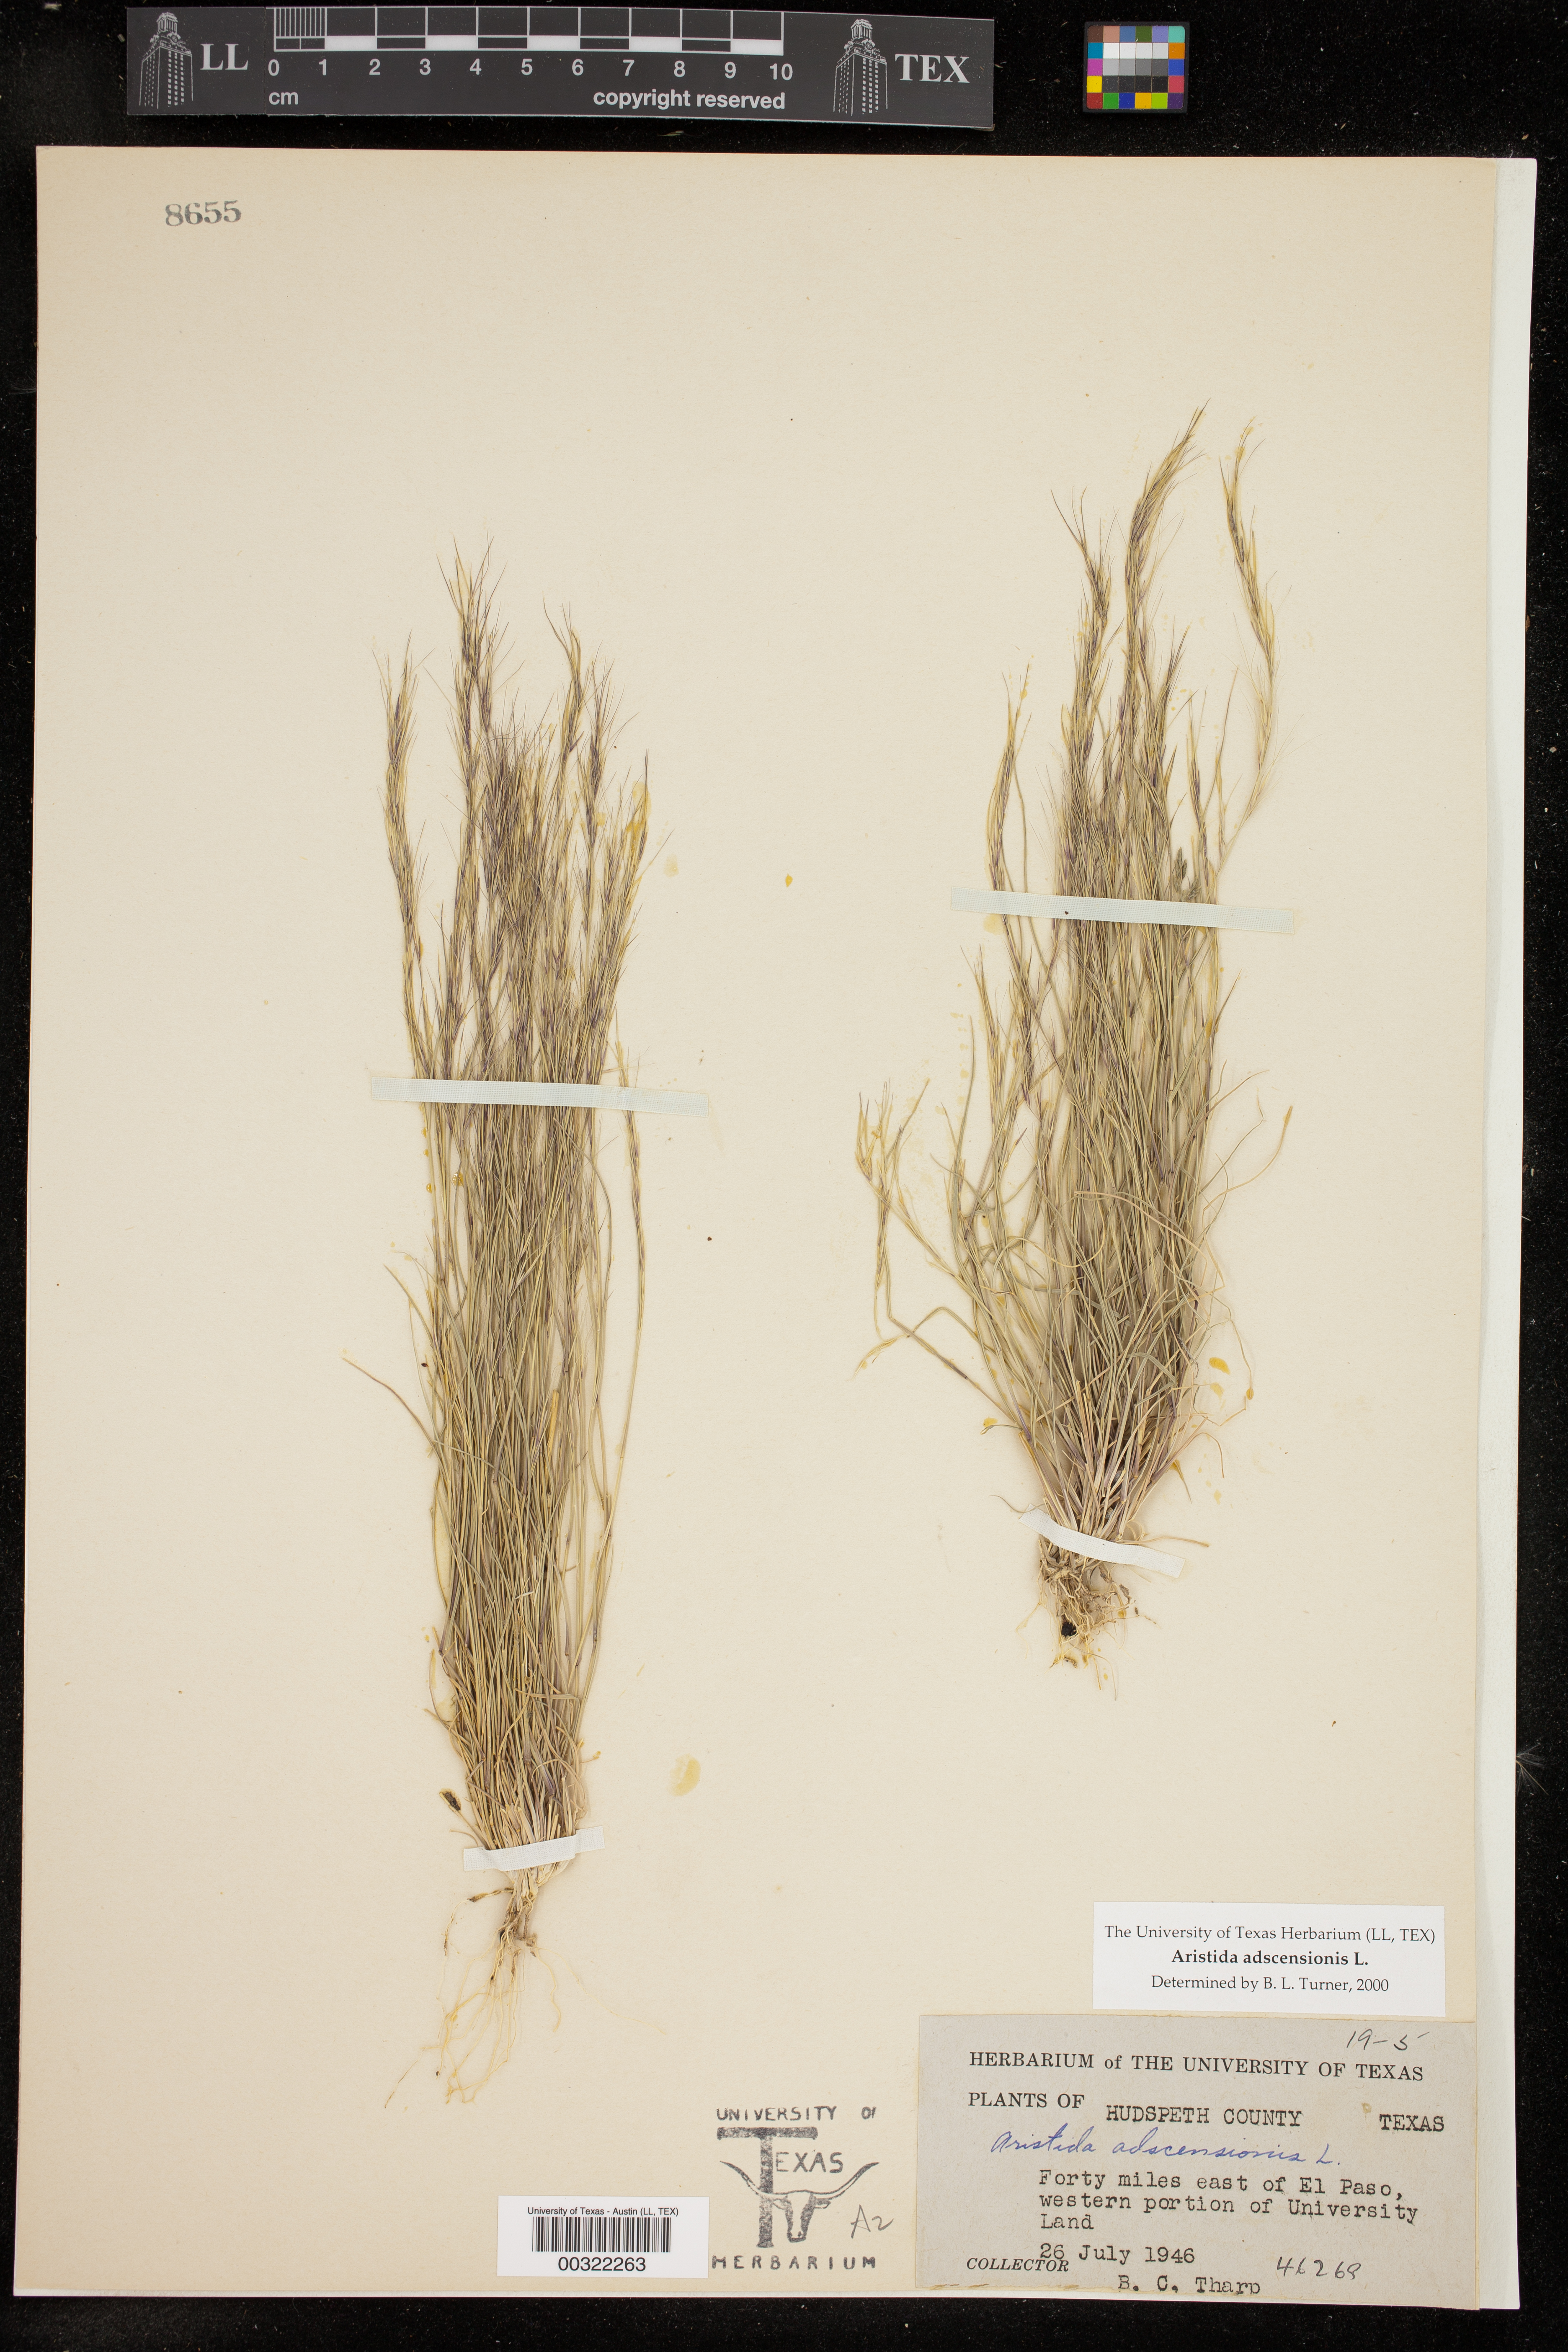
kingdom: Plantae
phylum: Tracheophyta
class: Liliopsida
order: Poales
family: Poaceae
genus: Aristida
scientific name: Aristida adscensionis
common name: Sixweeks threeawn
